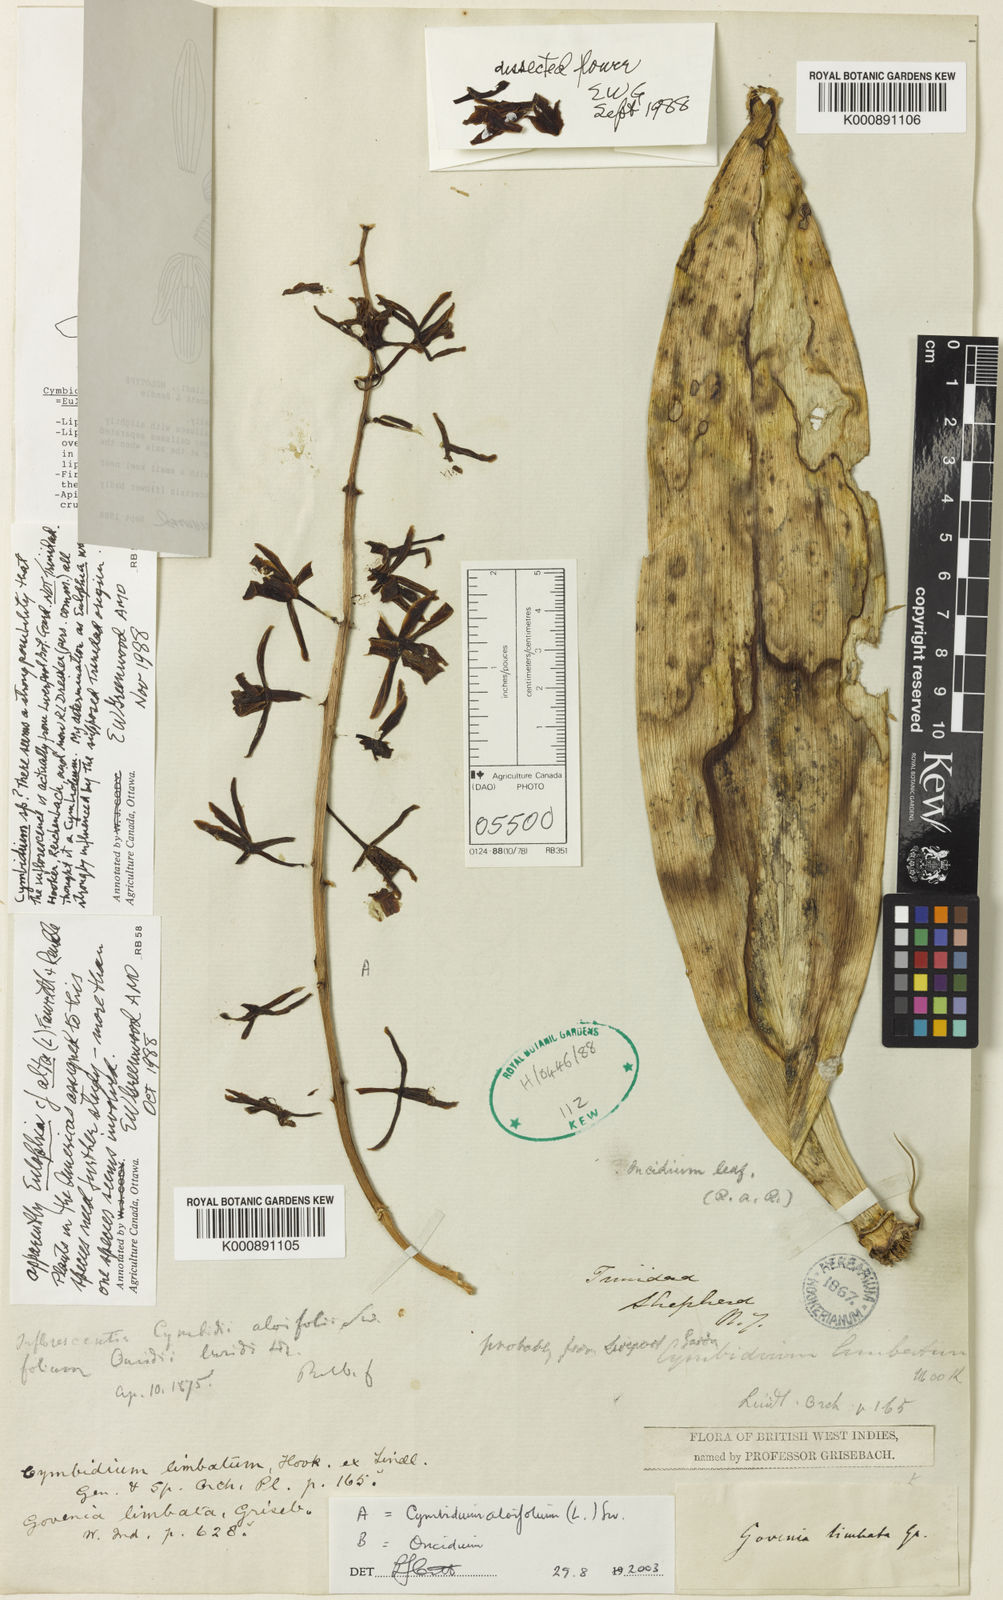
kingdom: Plantae
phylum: Tracheophyta
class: Liliopsida
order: Asparagales
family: Orchidaceae
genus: Cymbidium
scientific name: Cymbidium limbatum
